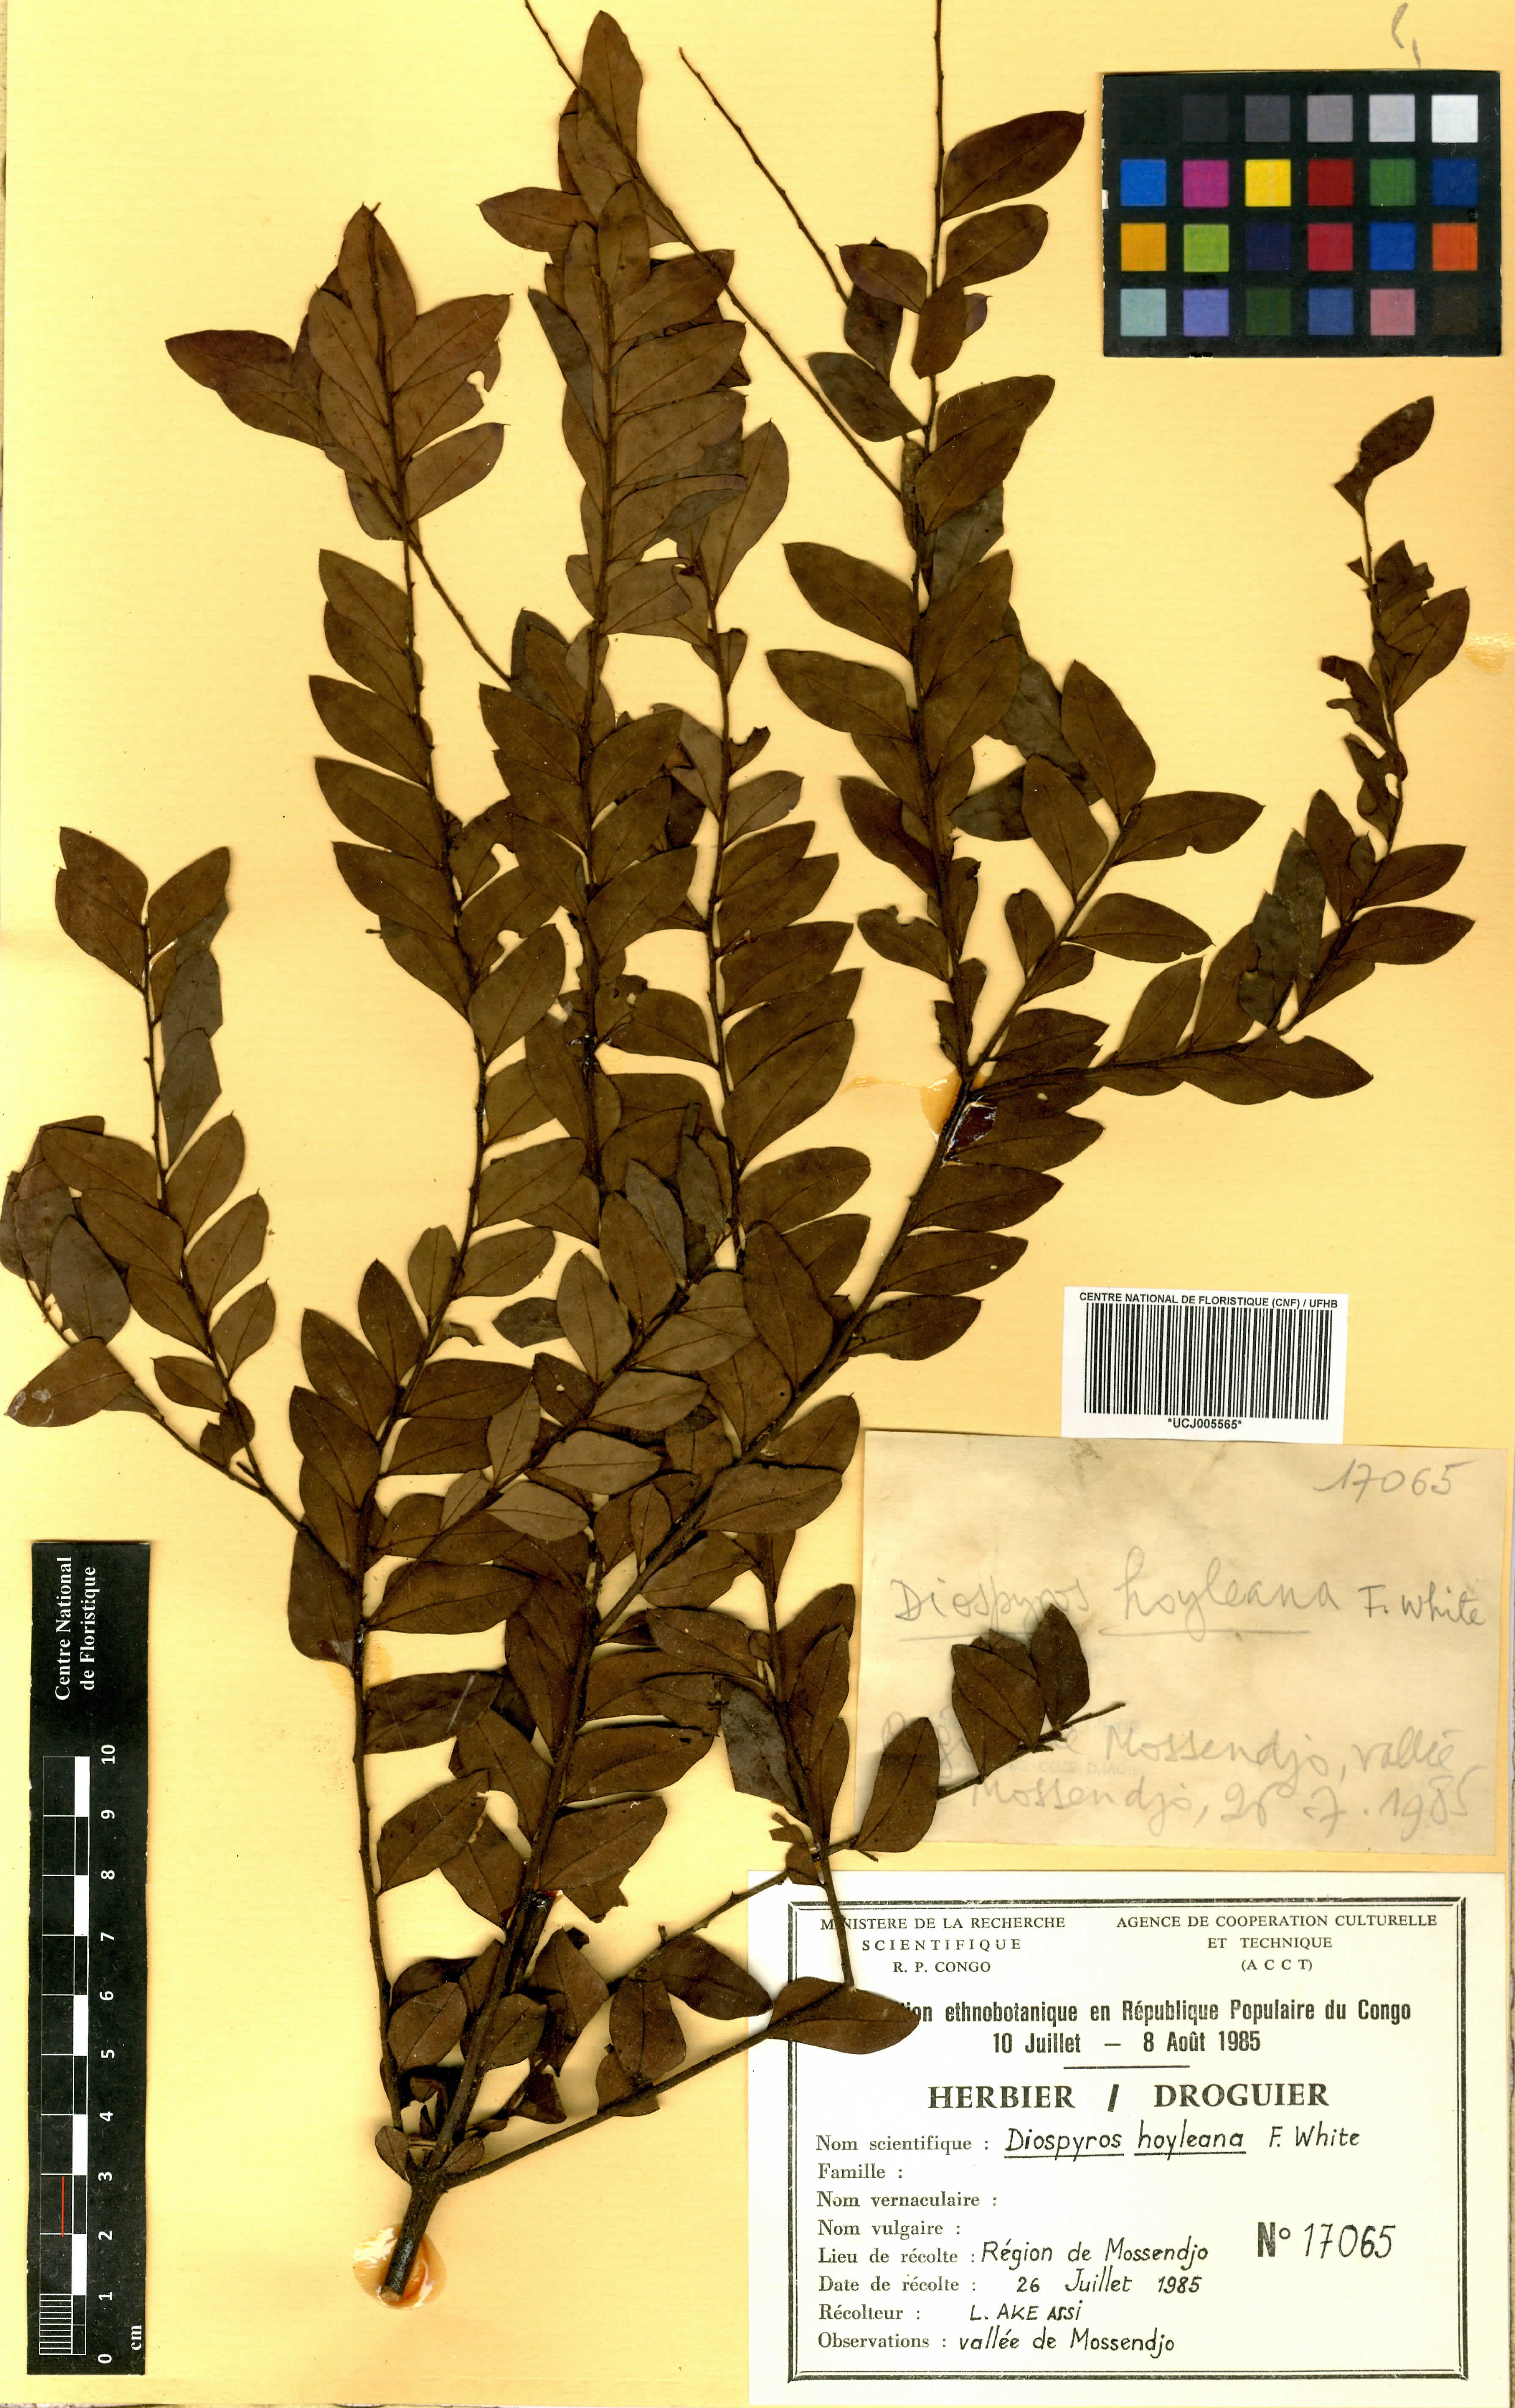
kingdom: Plantae
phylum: Tracheophyta
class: Magnoliopsida
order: Ericales
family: Ebenaceae
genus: Diospyros
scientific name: Diospyros hoyleana
